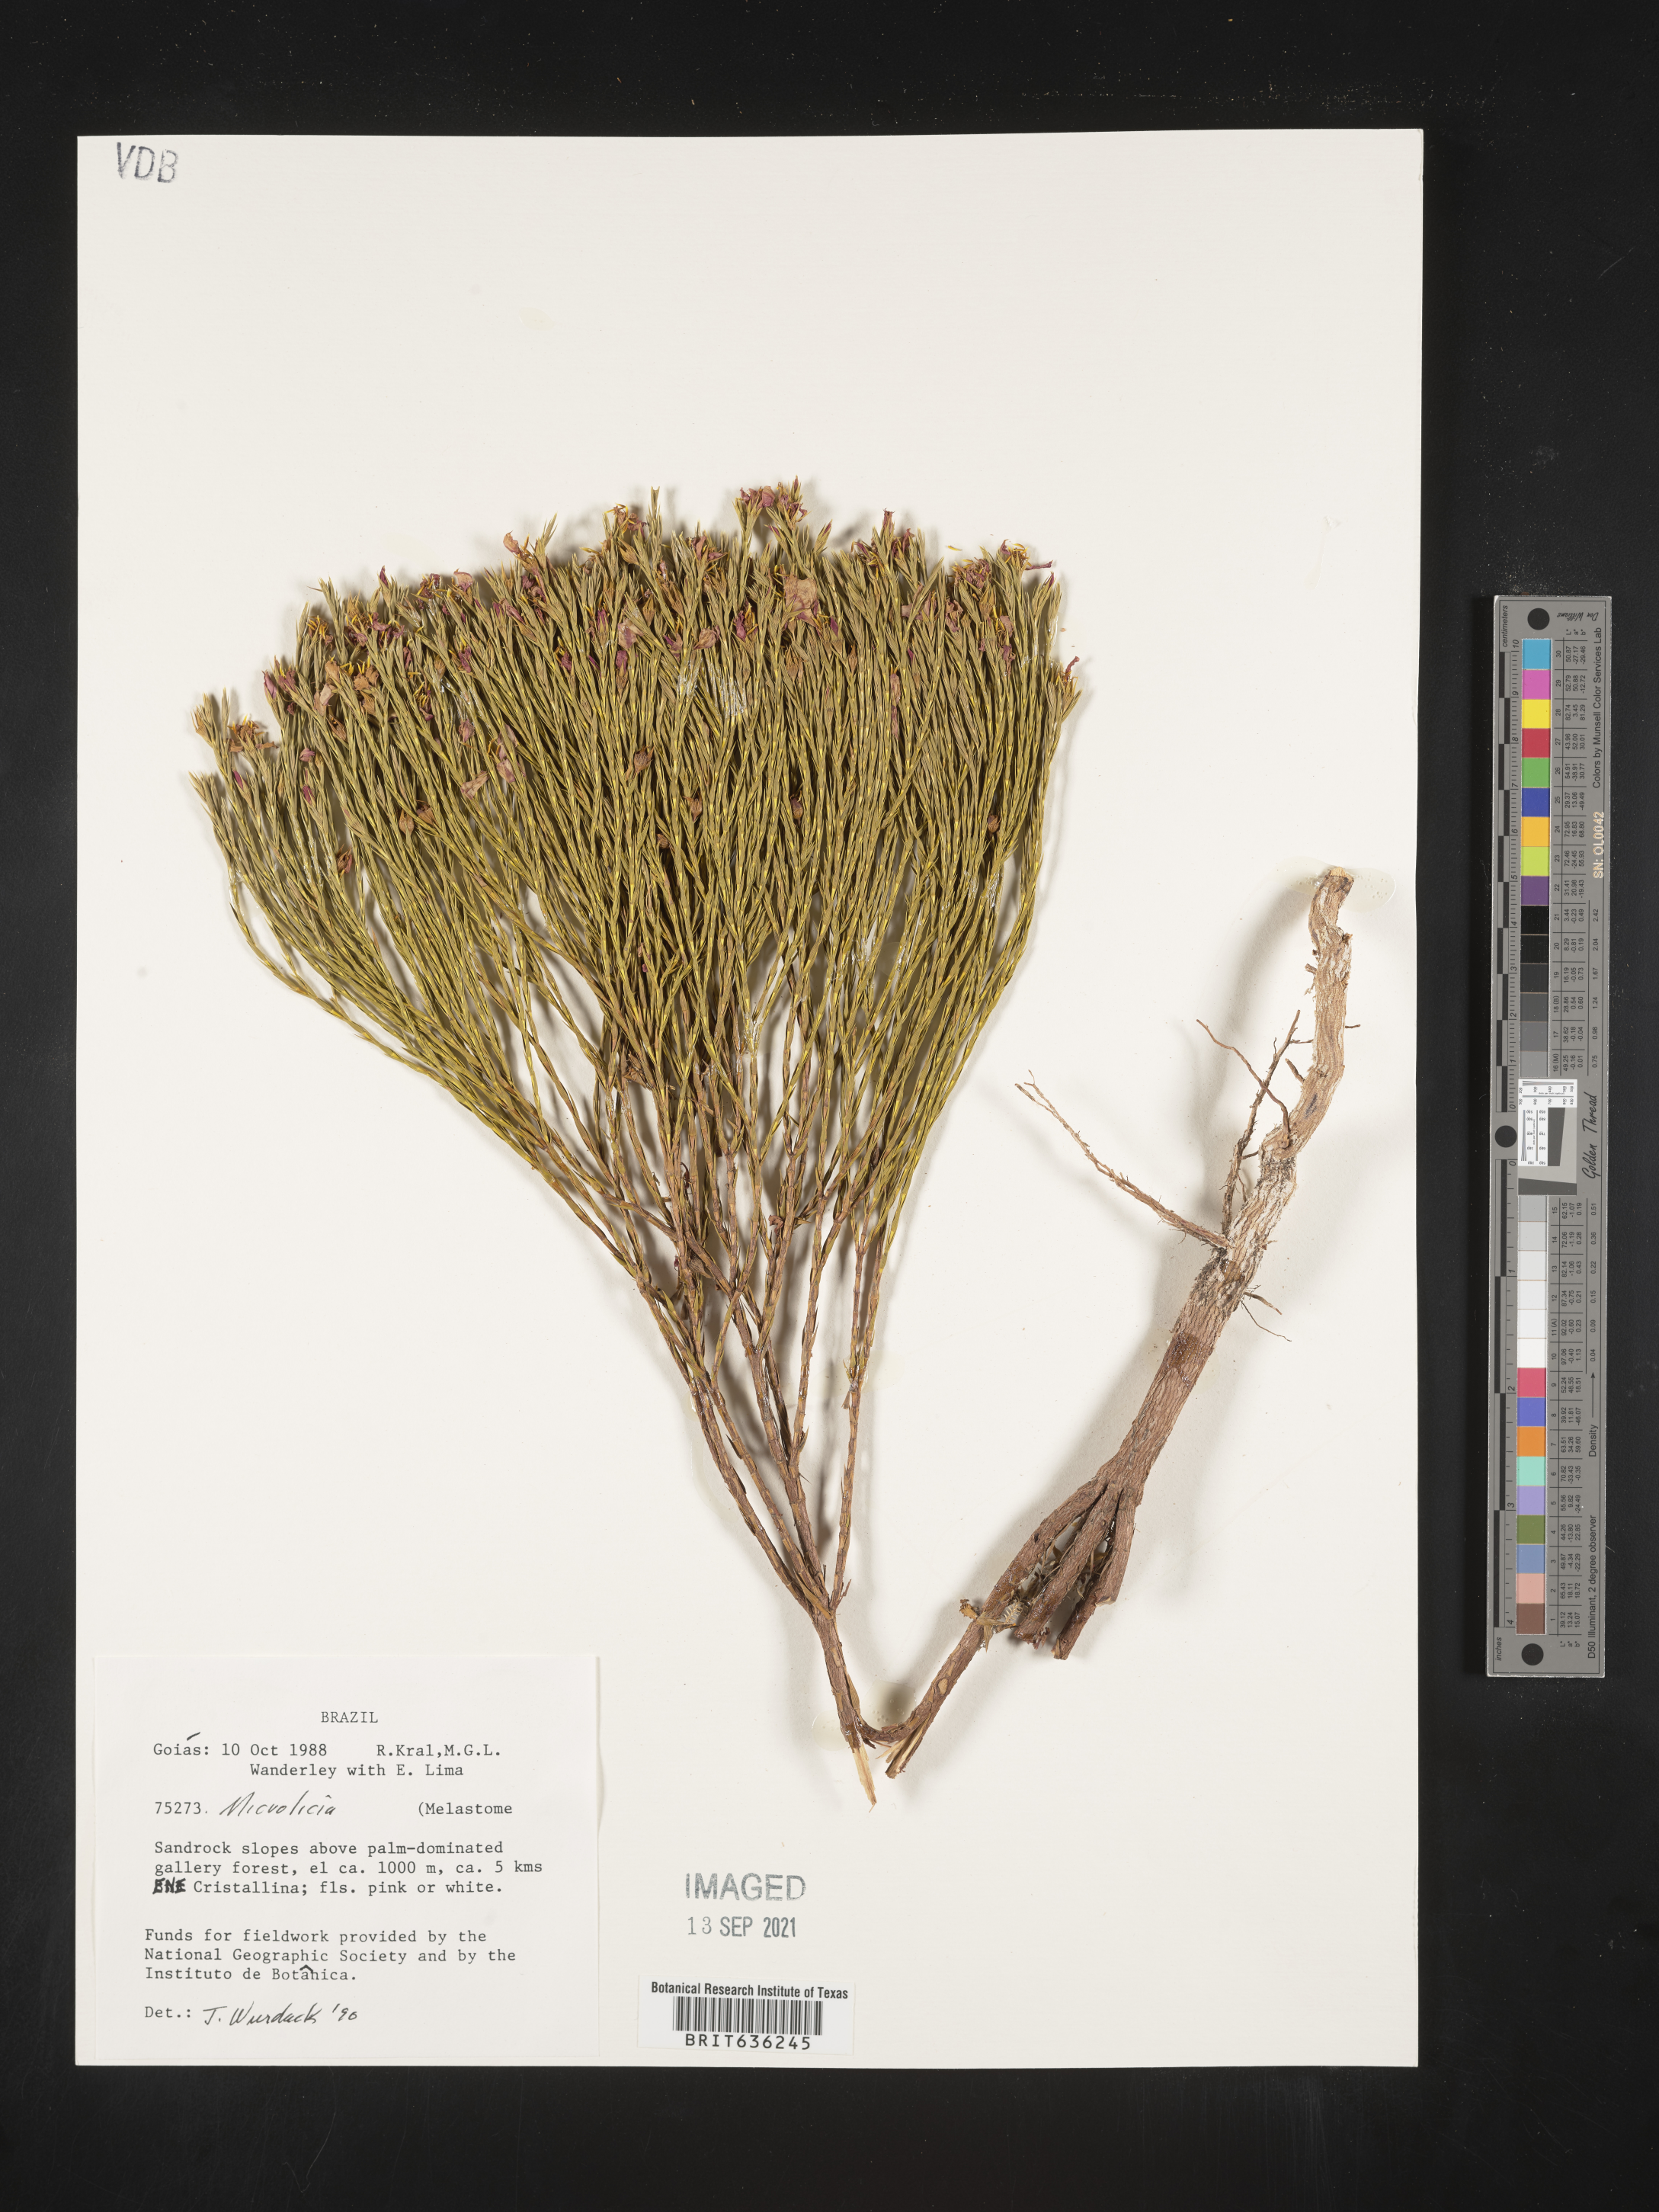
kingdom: Plantae
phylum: Tracheophyta
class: Magnoliopsida
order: Myrtales
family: Melastomataceae
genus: Microlicia
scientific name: Microlicia
